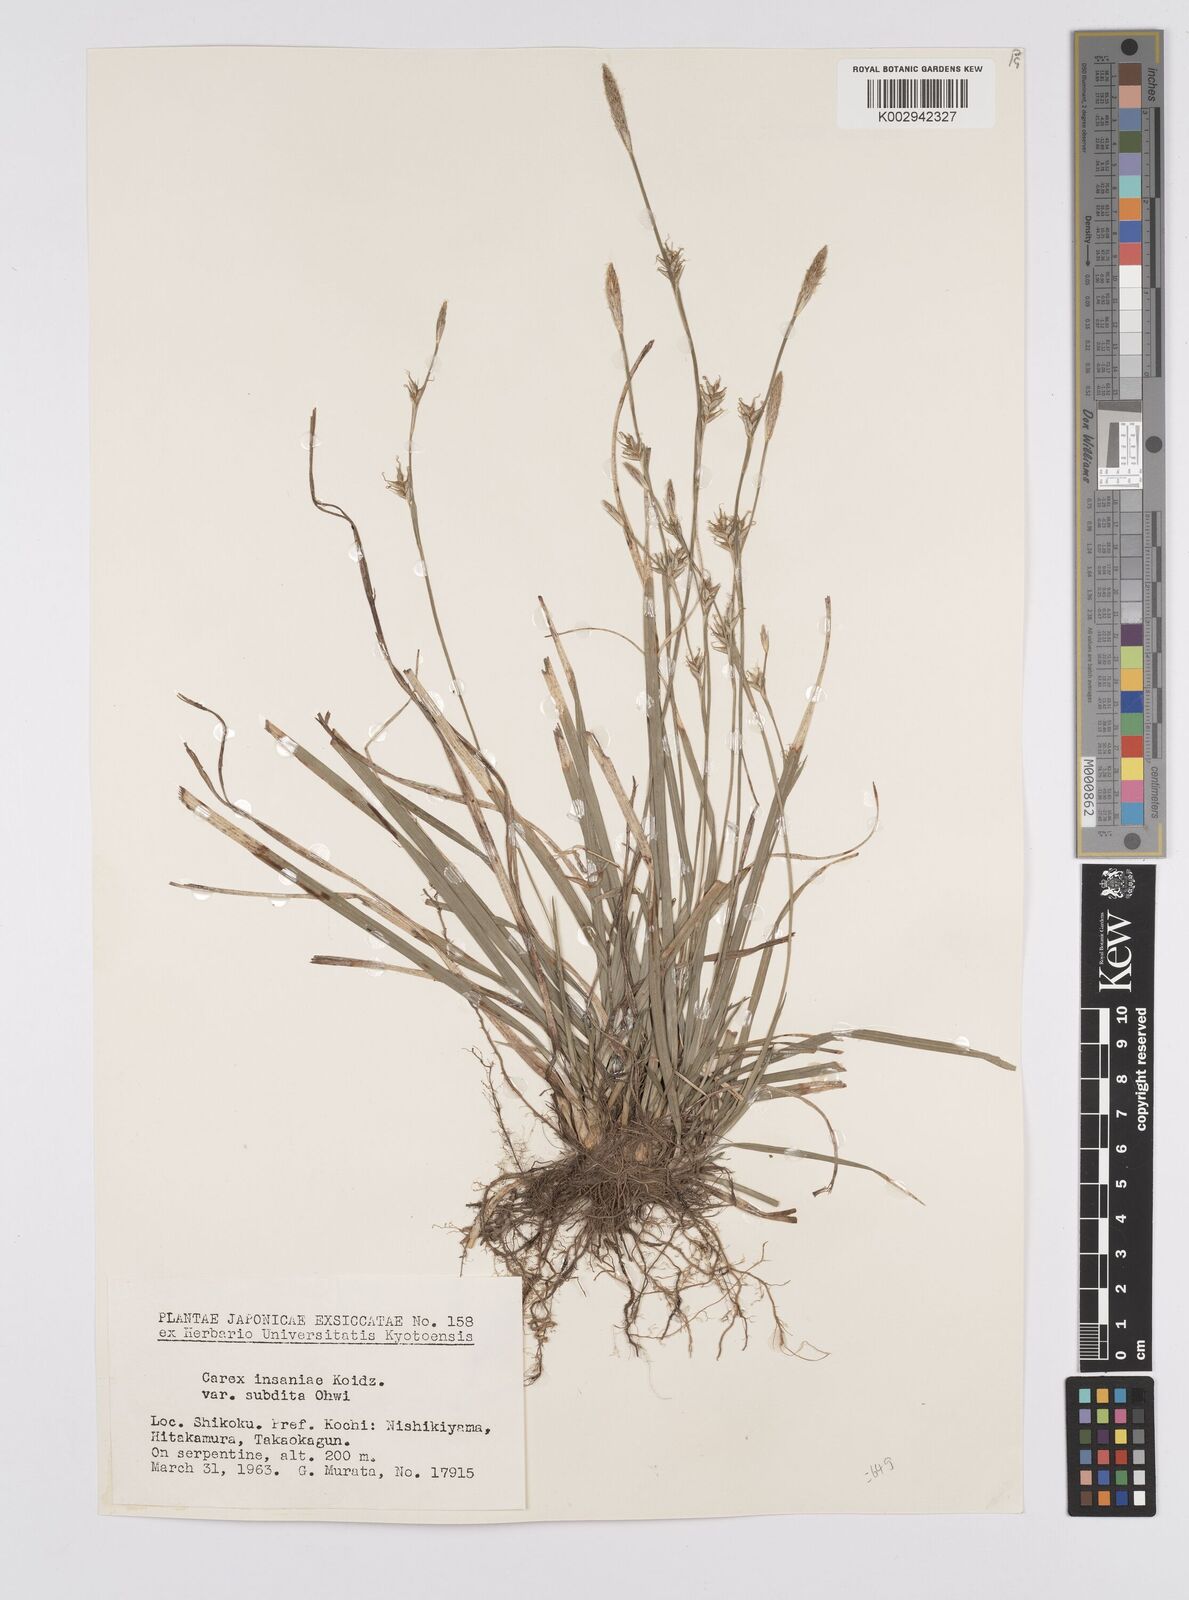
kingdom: Plantae
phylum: Tracheophyta
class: Liliopsida
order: Poales
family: Cyperaceae
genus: Carex
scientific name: Carex insaniae
